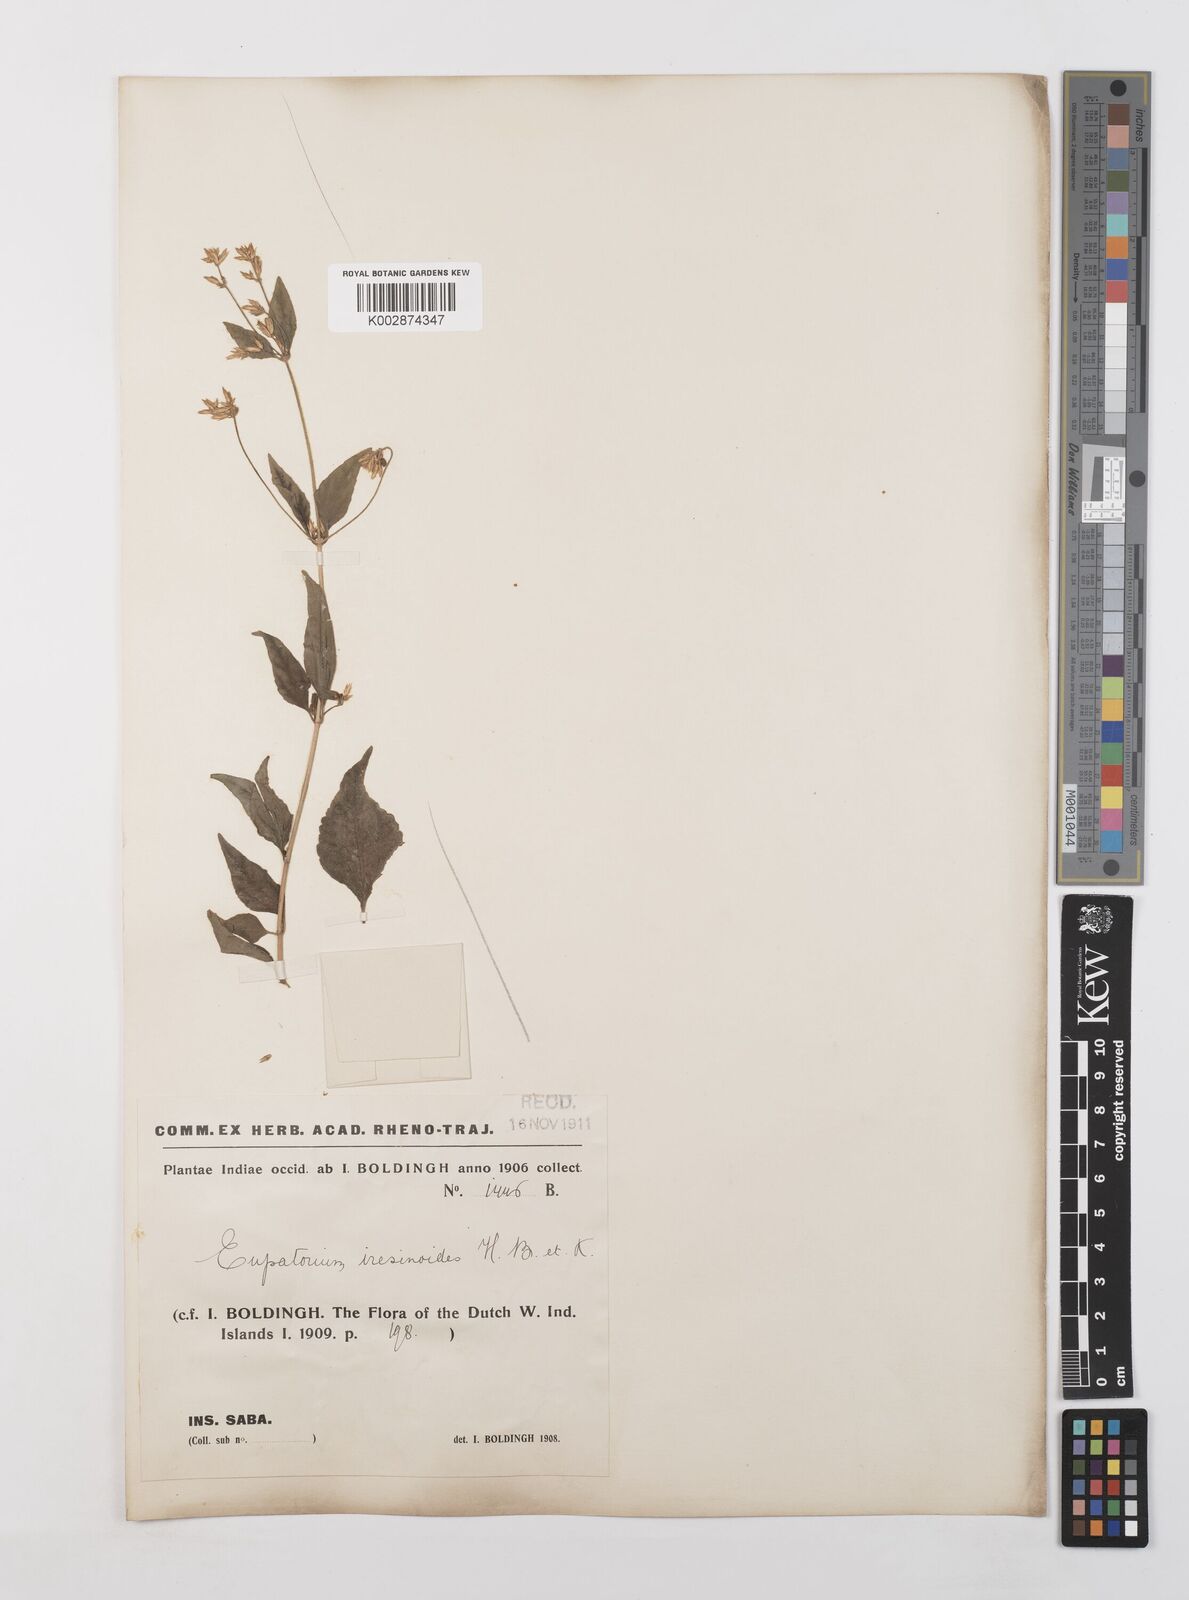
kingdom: Plantae
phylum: Tracheophyta
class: Magnoliopsida
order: Asterales
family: Asteraceae
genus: Condylidium
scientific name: Condylidium iresinoides
